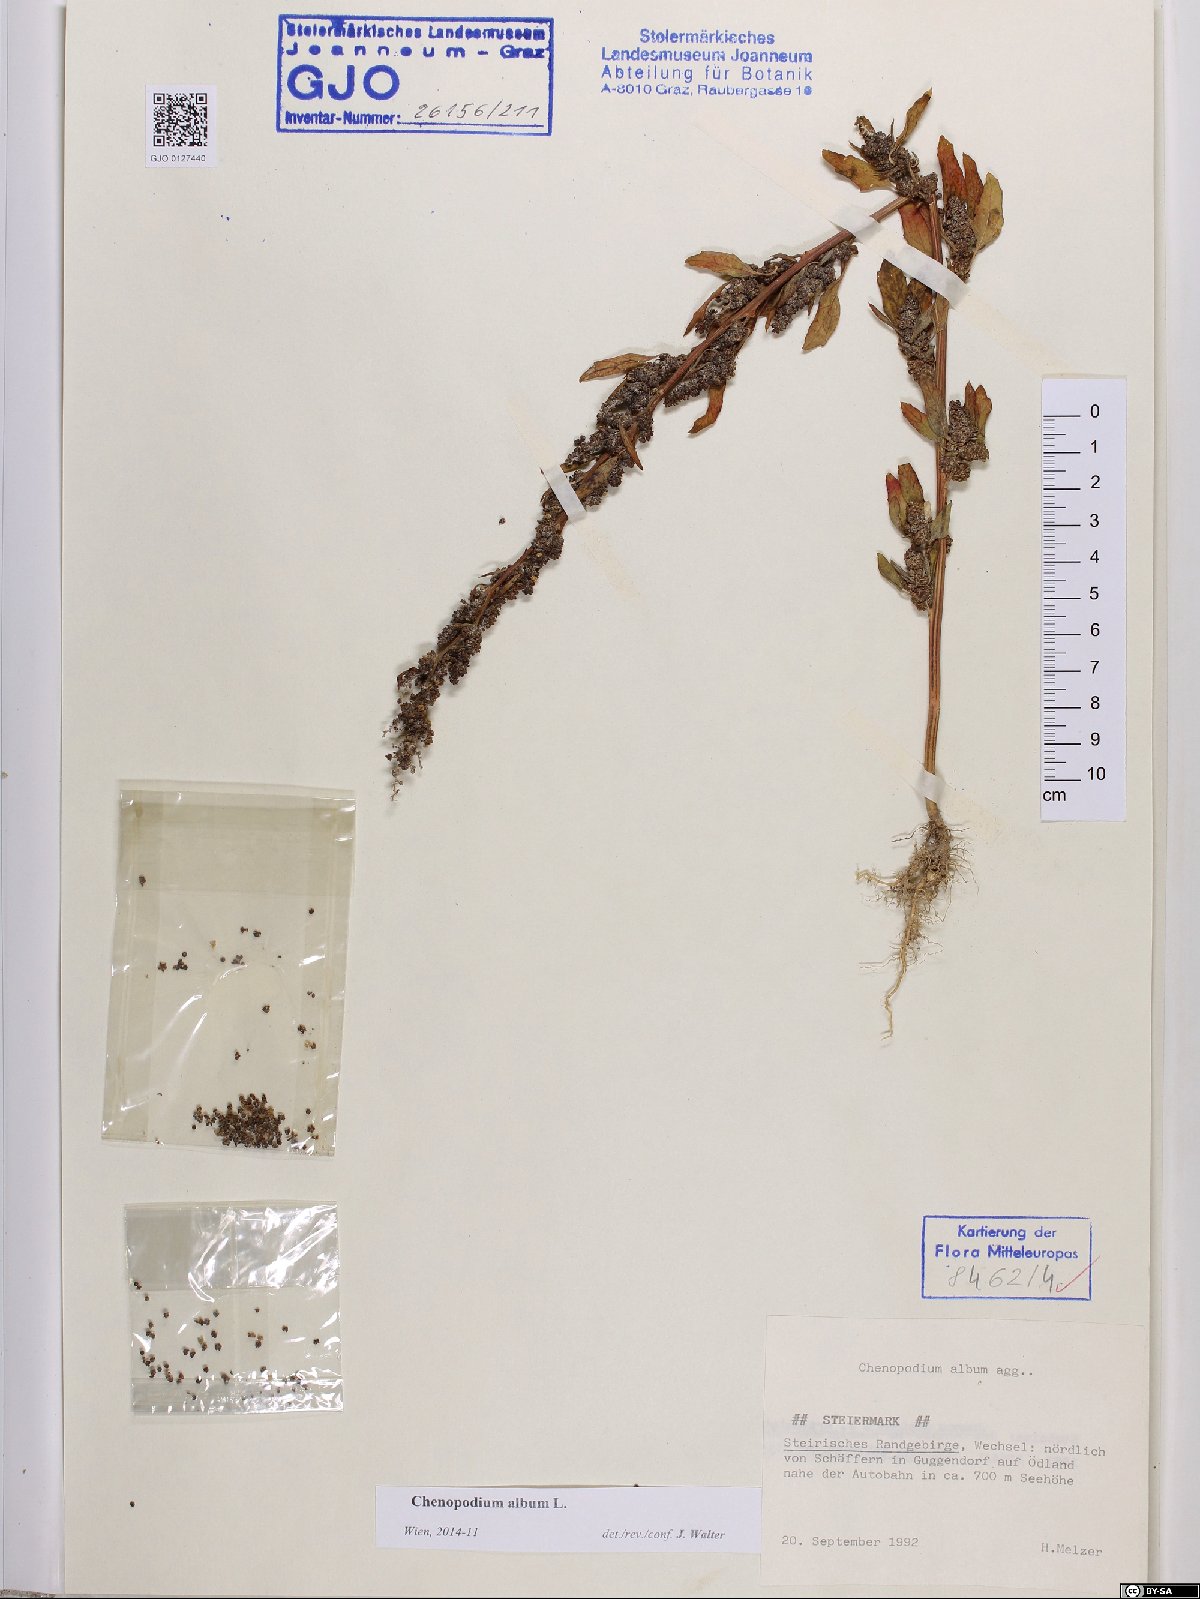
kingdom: Plantae
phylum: Tracheophyta
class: Magnoliopsida
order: Caryophyllales
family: Amaranthaceae
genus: Chenopodium
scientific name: Chenopodium album
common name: Fat-hen
